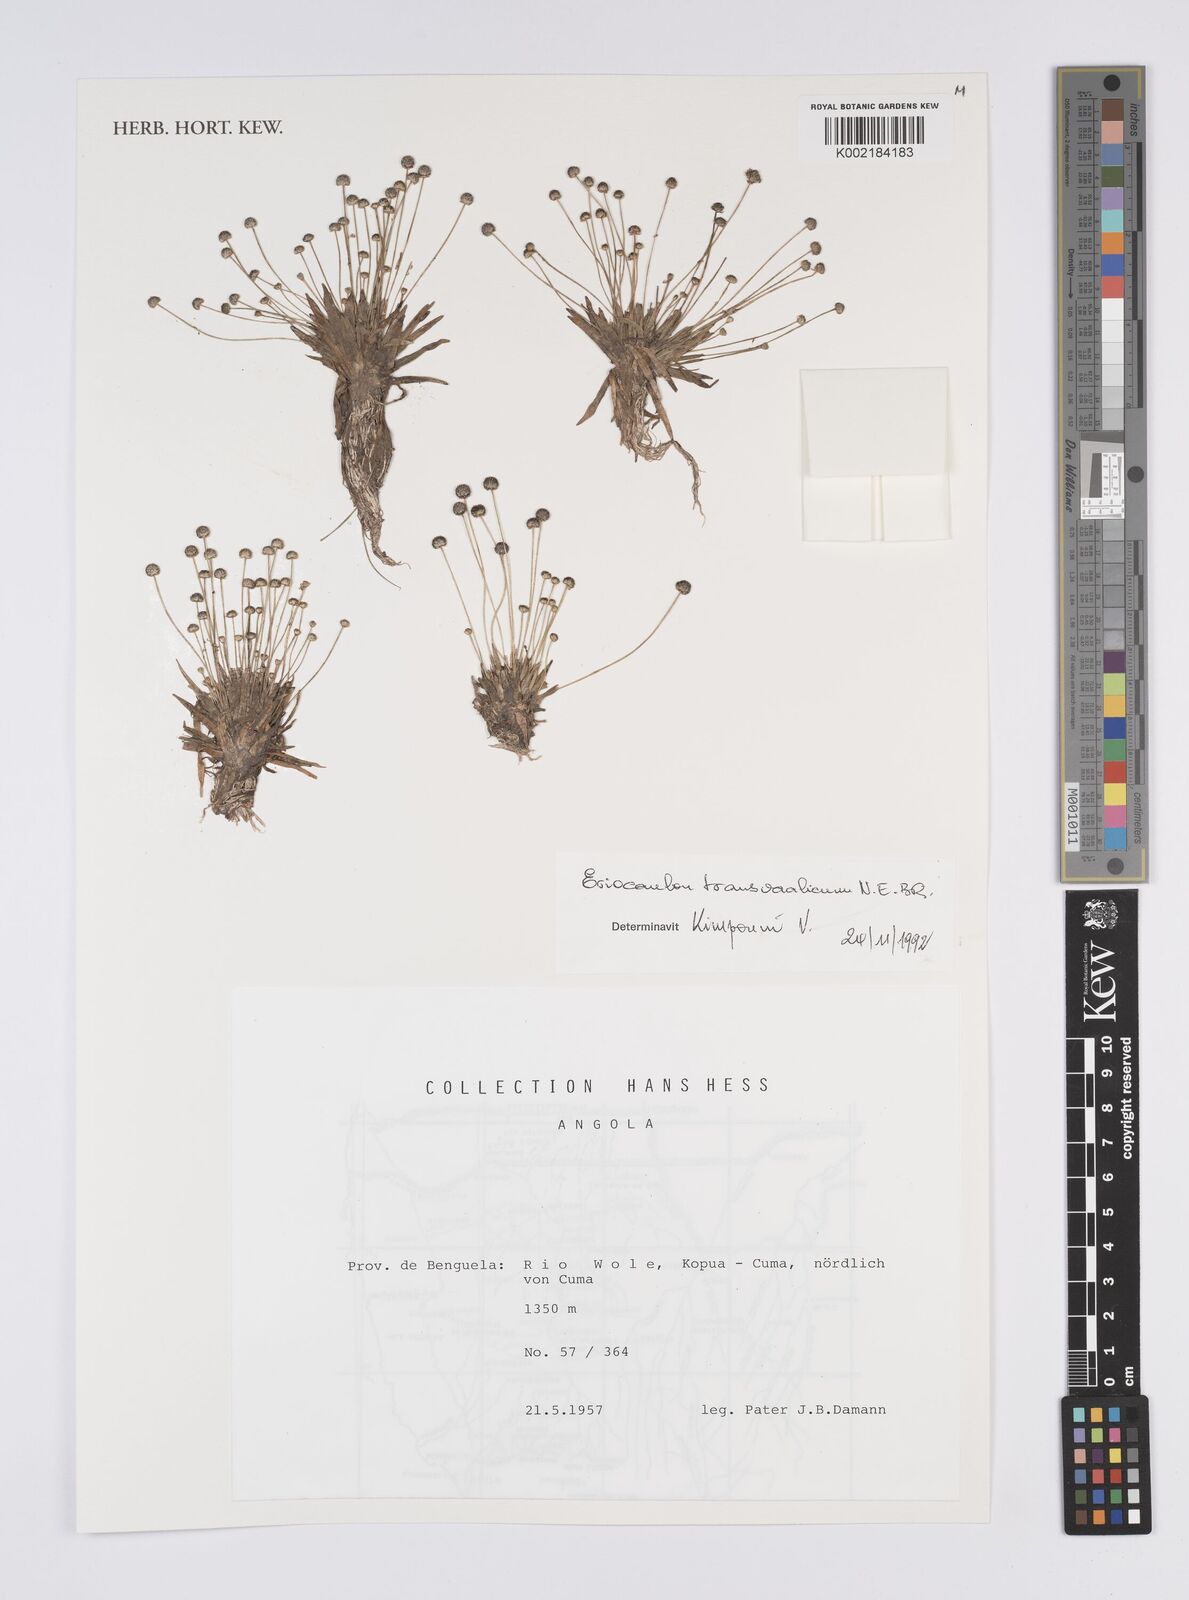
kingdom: Plantae
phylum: Tracheophyta
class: Liliopsida
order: Poales
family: Eriocaulaceae
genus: Eriocaulon
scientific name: Eriocaulon transvaalicum
